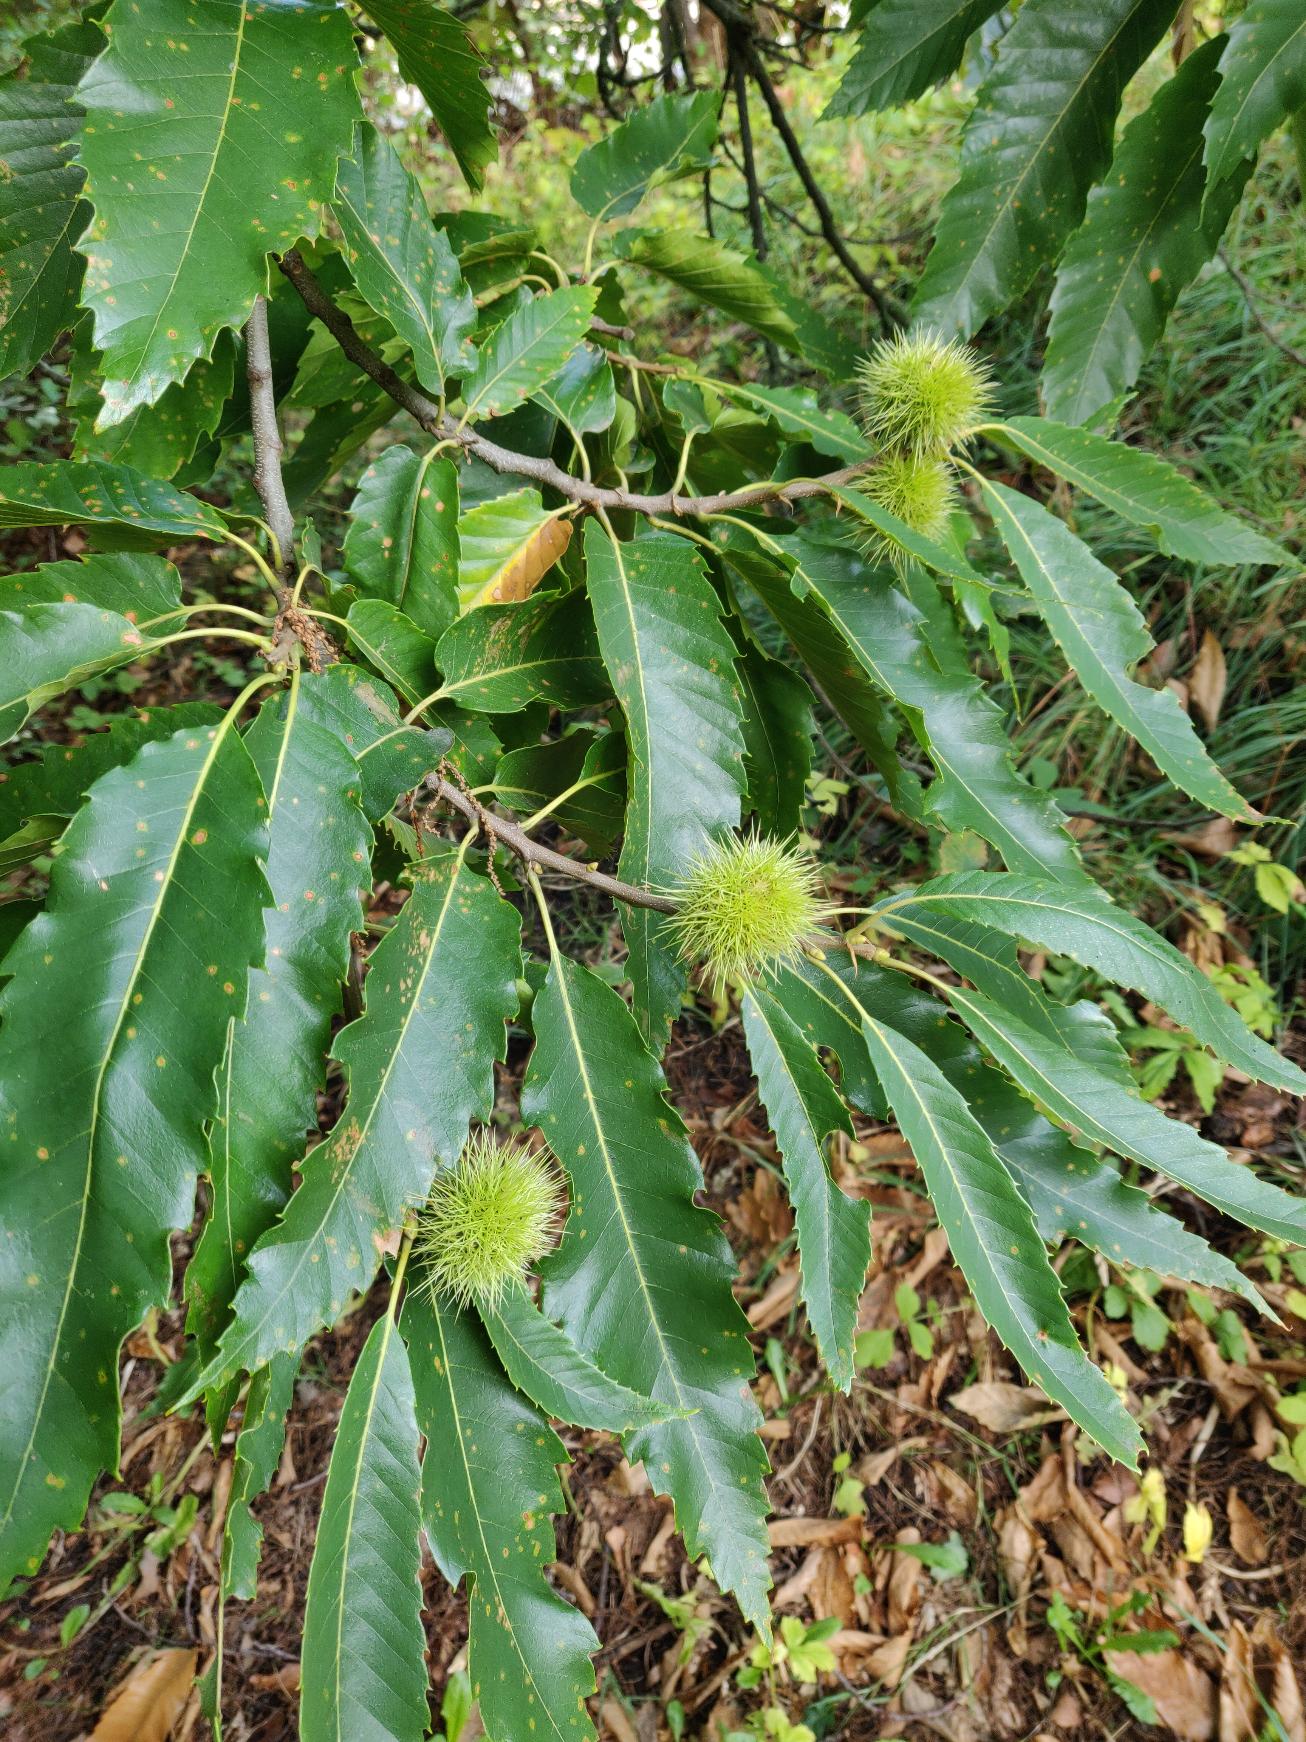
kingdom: Plantae
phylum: Tracheophyta
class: Magnoliopsida
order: Fagales
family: Fagaceae
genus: Castanea
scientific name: Castanea sativa
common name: Ægte kastanie
